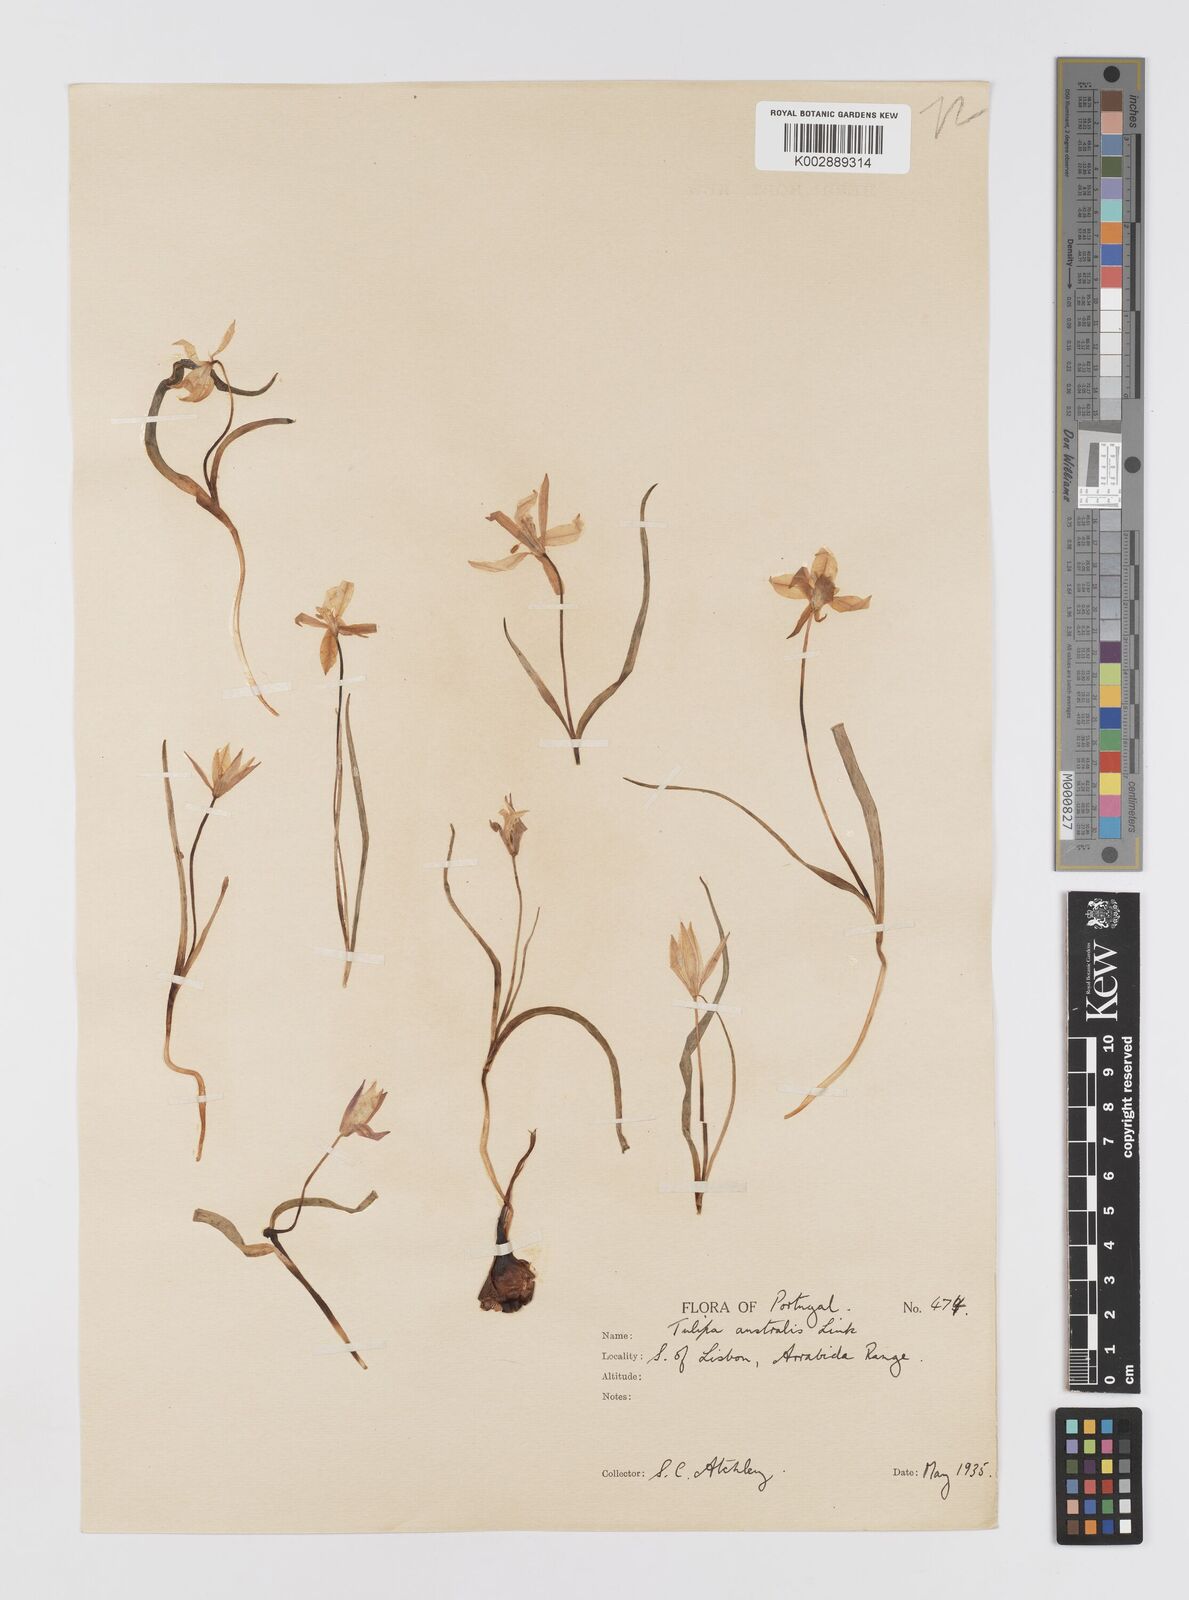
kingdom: Plantae
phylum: Tracheophyta
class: Liliopsida
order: Liliales
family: Liliaceae
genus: Tulipa
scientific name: Tulipa sylvestris
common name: Wild tulip
